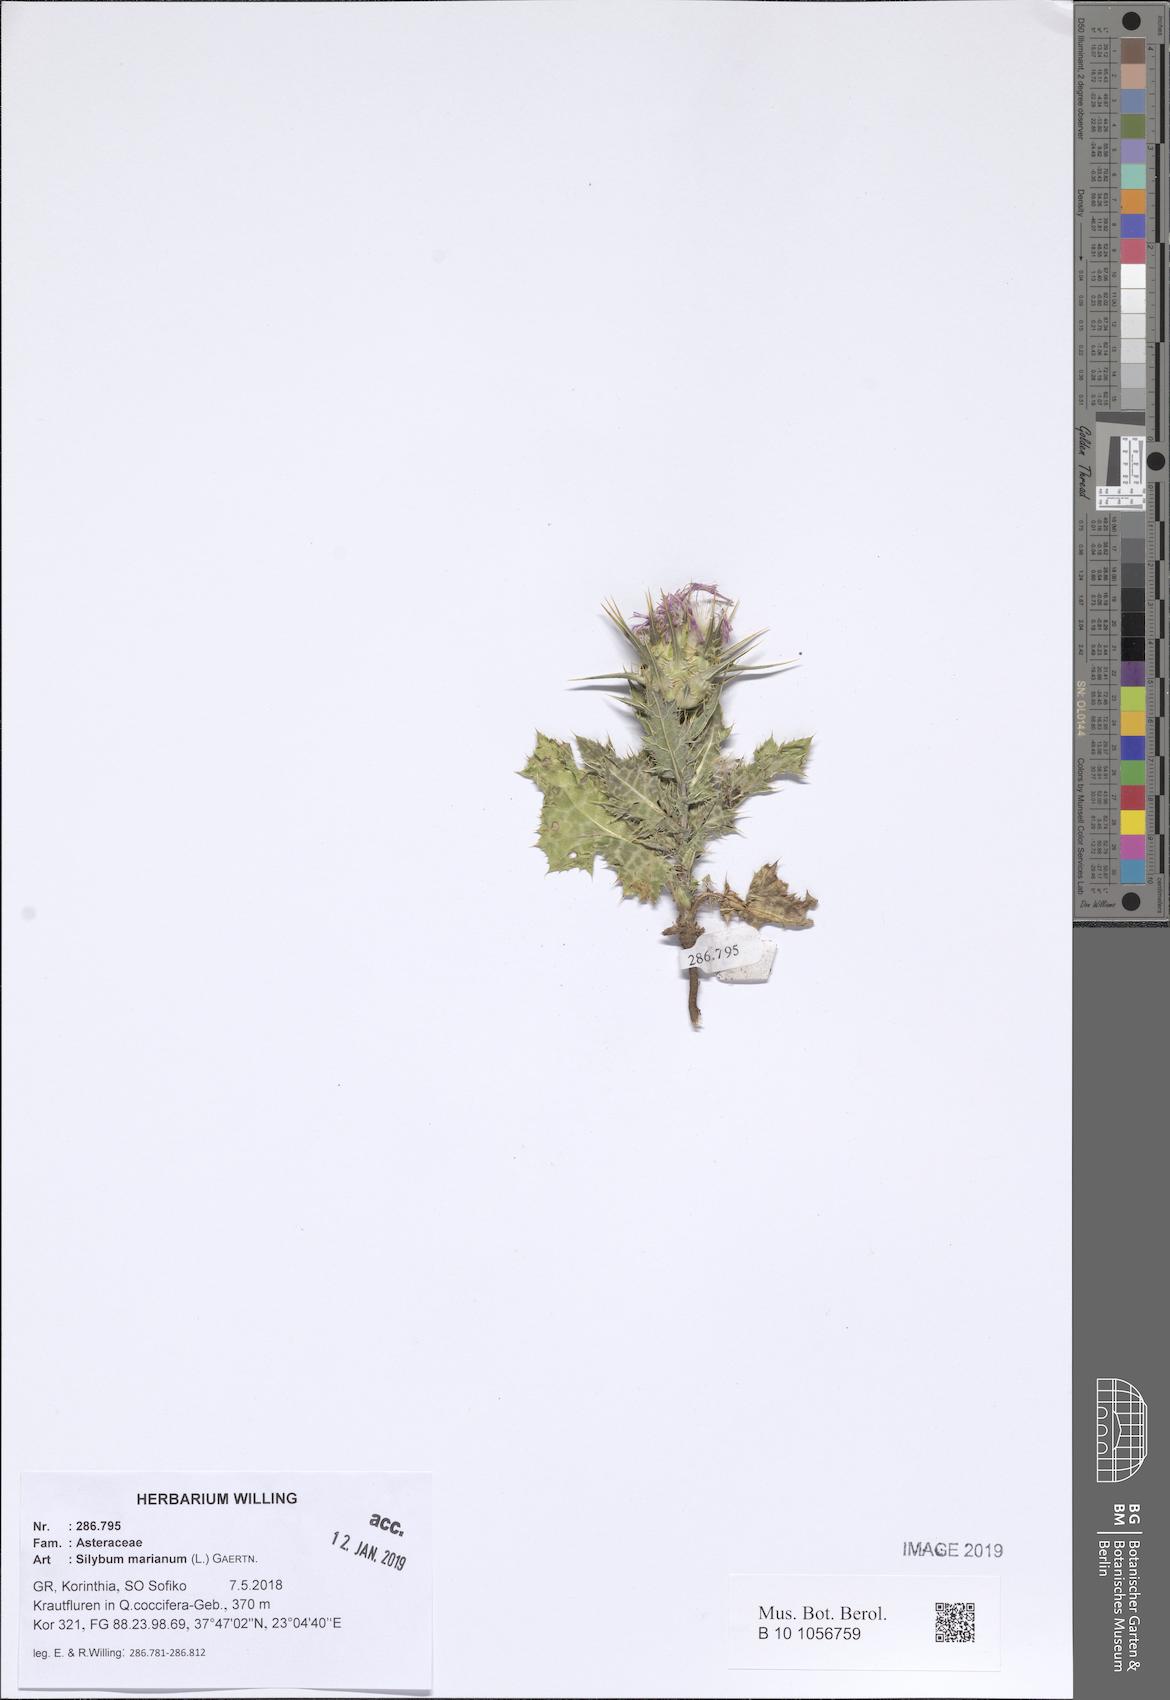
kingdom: Plantae
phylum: Tracheophyta
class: Magnoliopsida
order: Asterales
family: Asteraceae
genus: Silybum
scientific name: Silybum marianum
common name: Milk thistle
